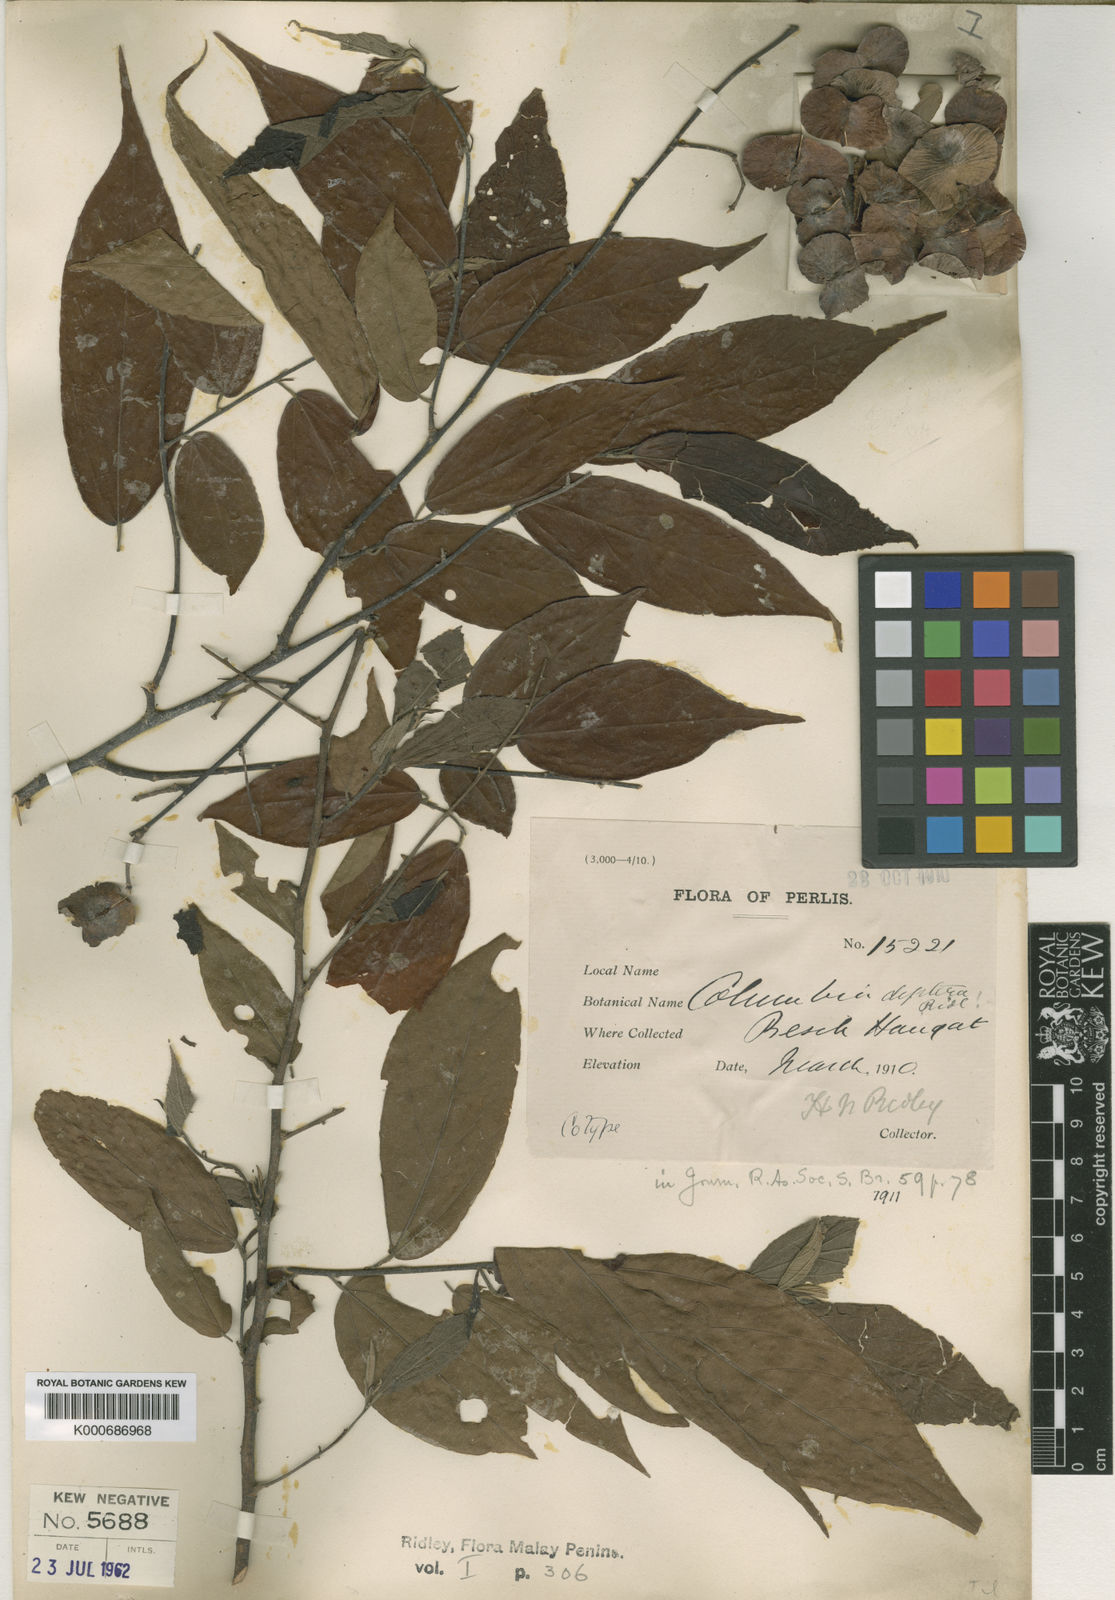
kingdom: Plantae
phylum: Tracheophyta
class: Magnoliopsida
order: Malvales
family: Malvaceae
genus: Colona
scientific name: Colona merguensis
